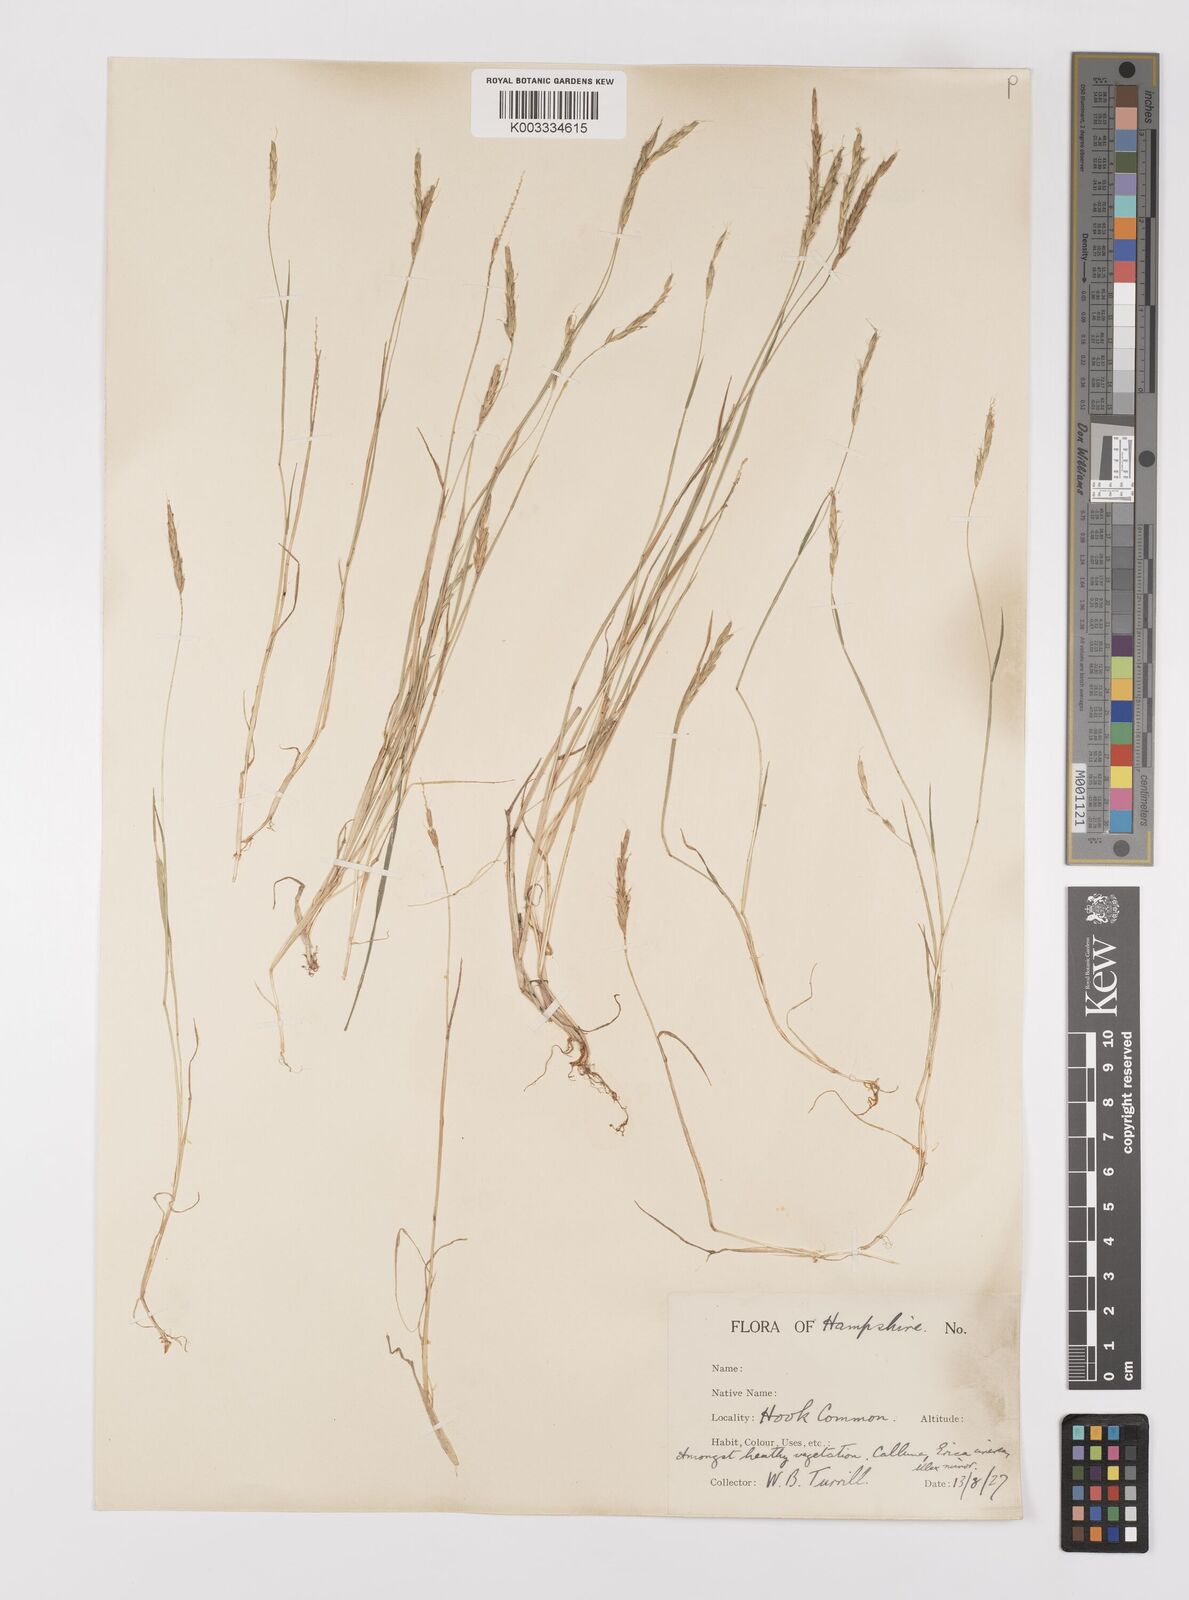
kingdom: Plantae
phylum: Tracheophyta
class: Liliopsida
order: Poales
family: Poaceae
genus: Alopecurus
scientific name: Alopecurus myosuroides
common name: Black-grass
